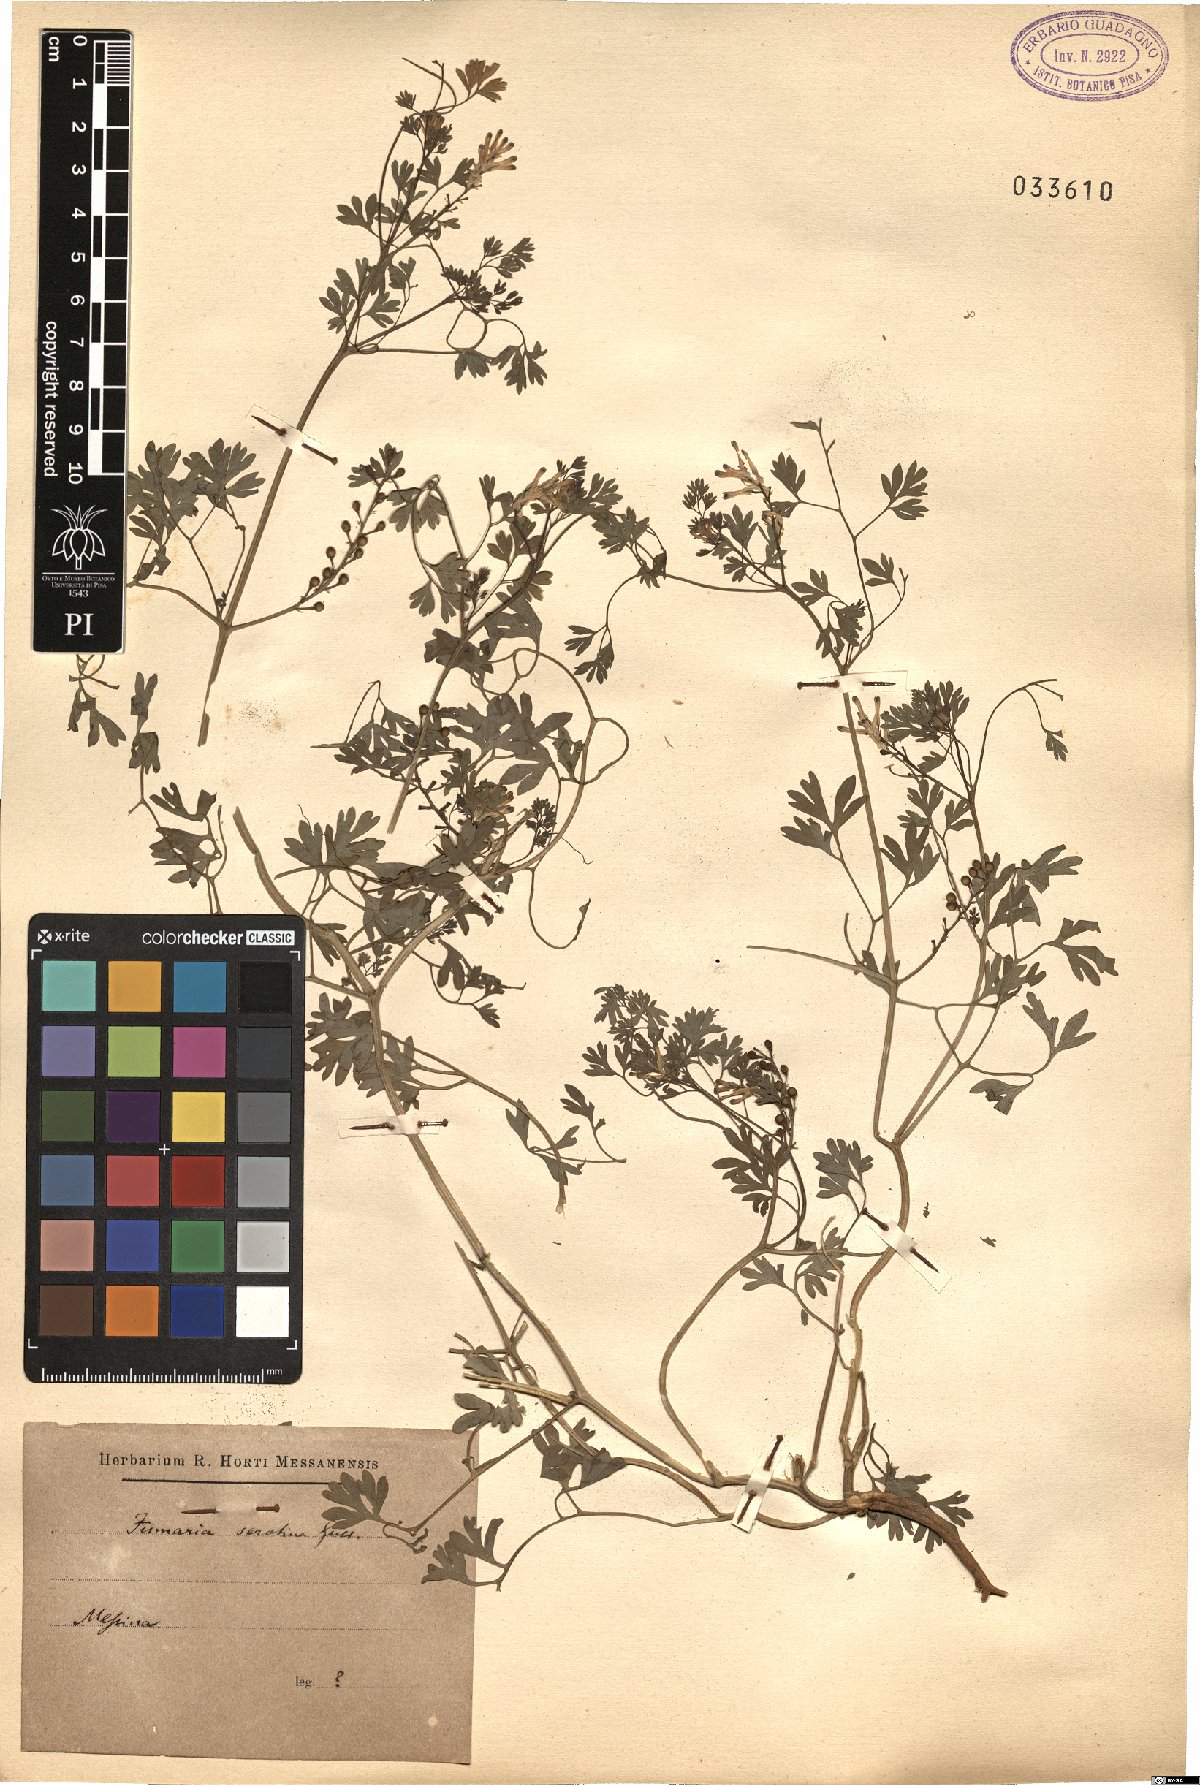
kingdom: Plantae
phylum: Tracheophyta
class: Magnoliopsida
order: Ranunculales
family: Papaveraceae
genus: Fumaria
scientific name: Fumaria bastardii
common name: Tall ramping-fumitory
